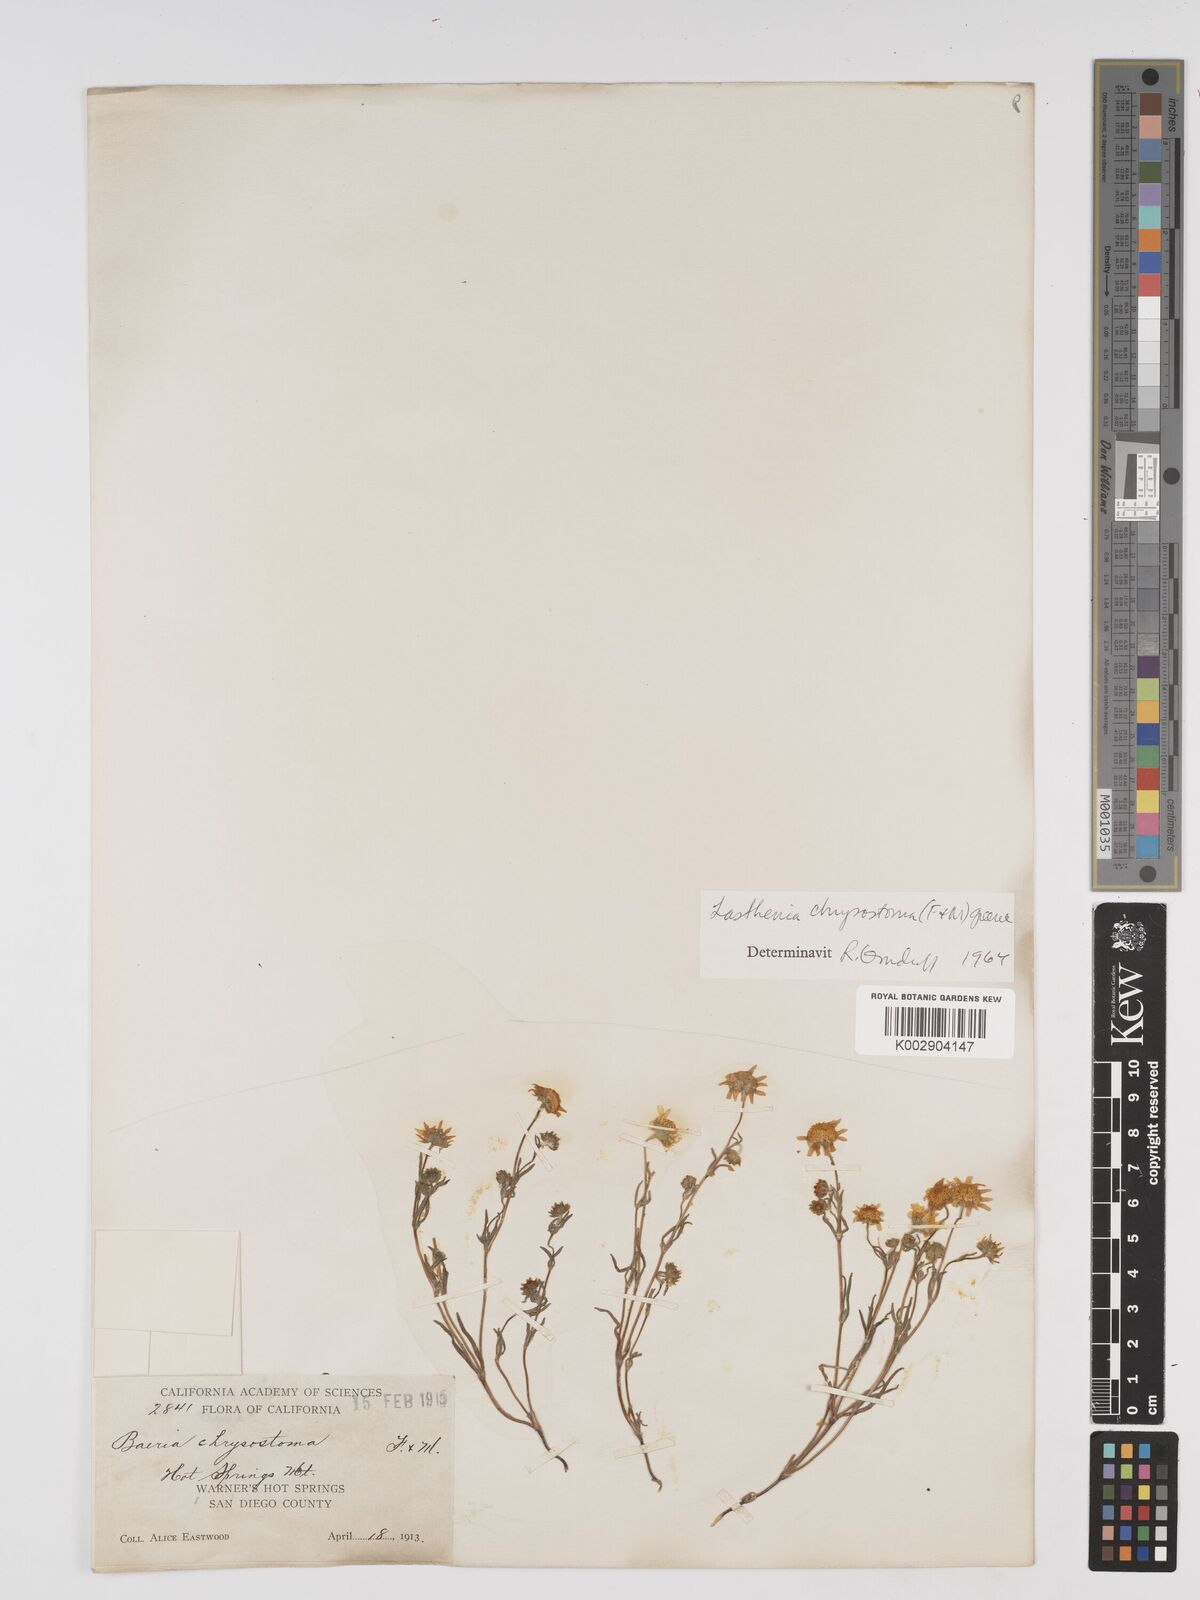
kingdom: Plantae
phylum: Tracheophyta
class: Magnoliopsida
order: Asterales
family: Asteraceae
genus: Lasthenia
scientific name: Lasthenia californica
